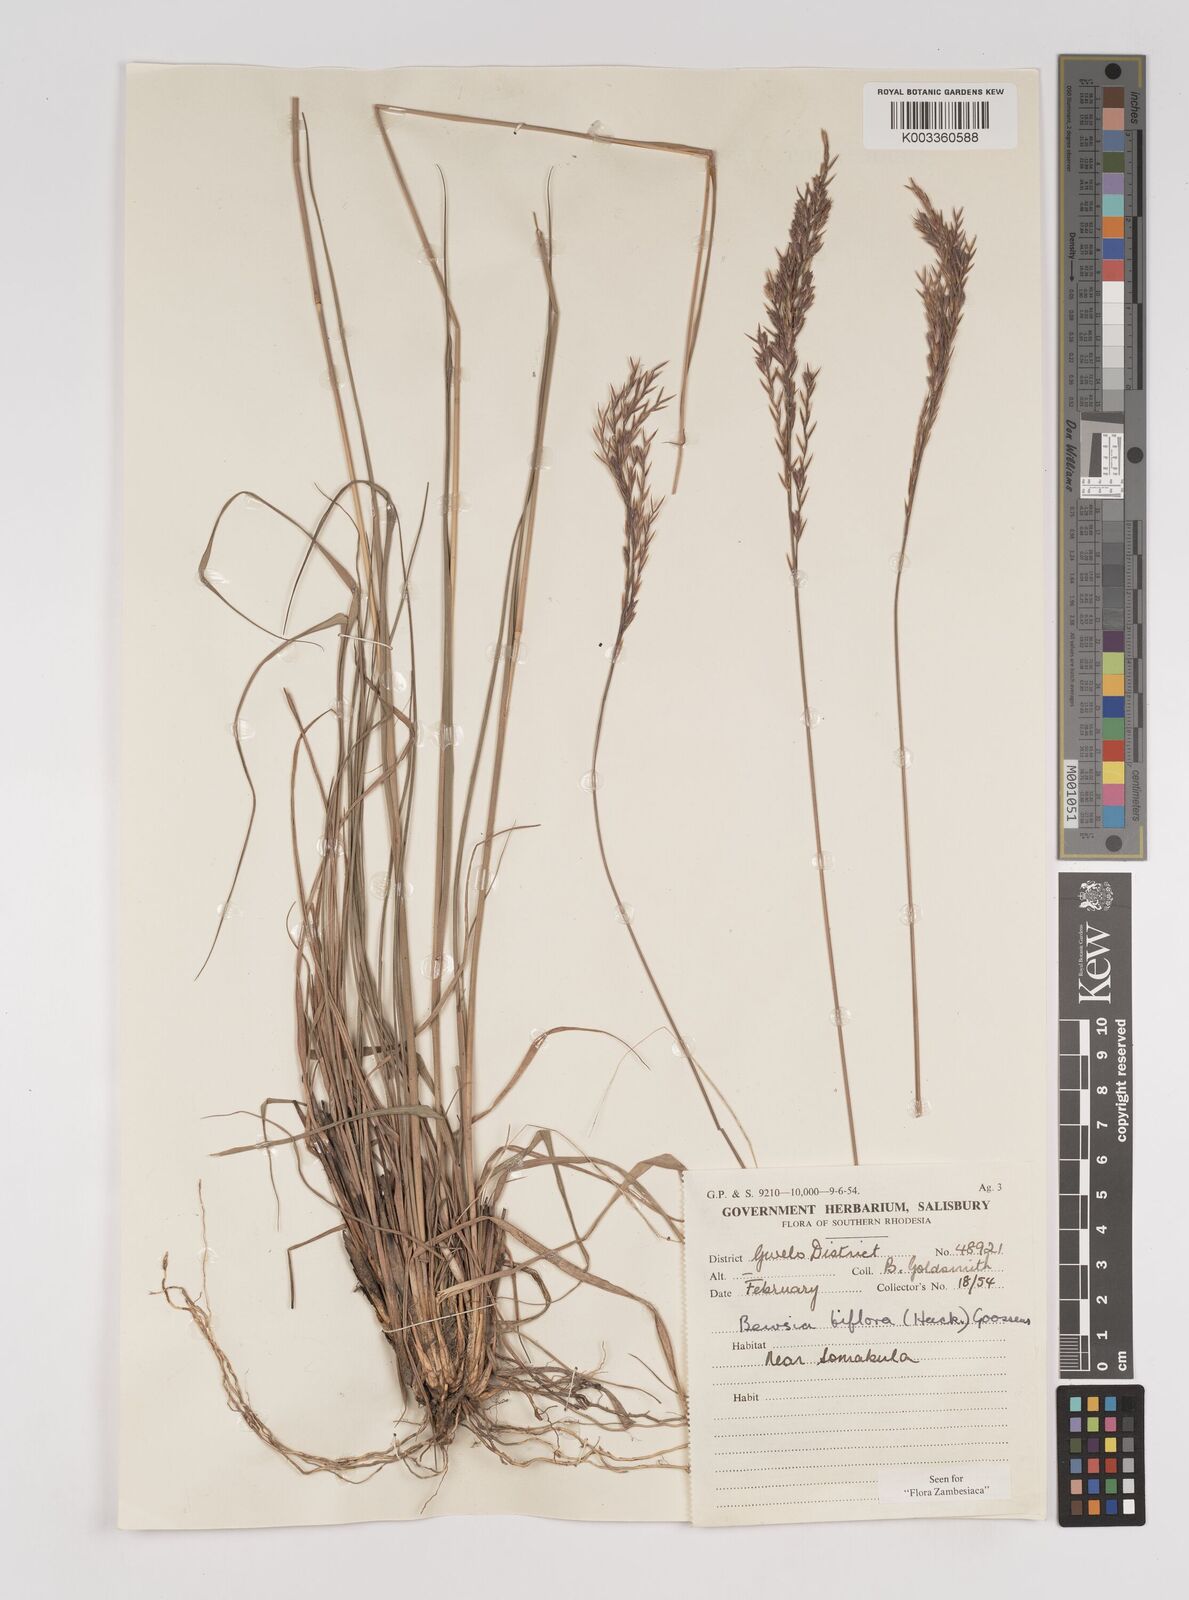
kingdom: Plantae
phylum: Tracheophyta
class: Liliopsida
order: Poales
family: Poaceae
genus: Bewsia
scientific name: Bewsia biflora
